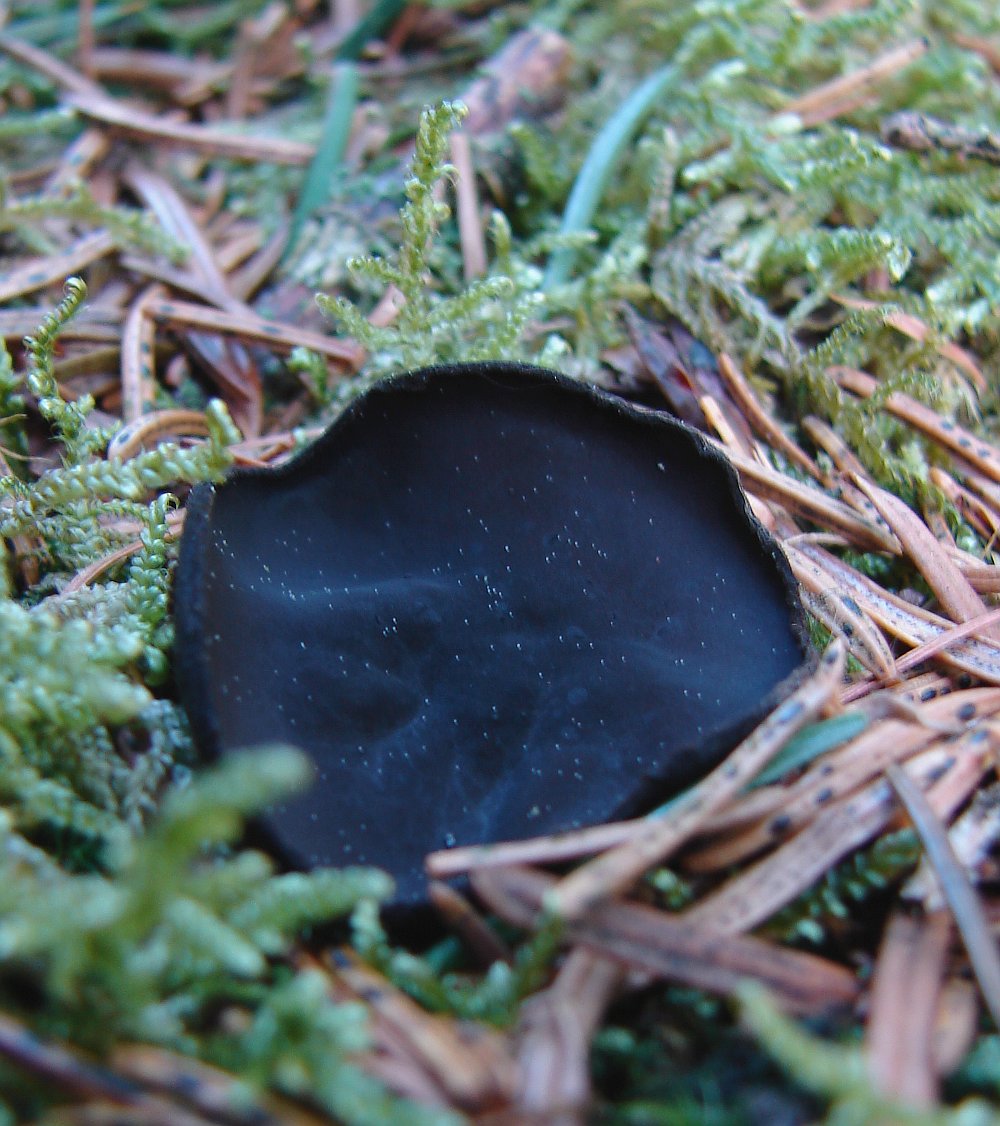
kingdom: Fungi
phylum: Ascomycota
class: Pezizomycetes
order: Pezizales
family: Sarcosomataceae
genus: Pseudoplectania
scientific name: Pseudoplectania nigrella
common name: almindelig sortbæger
